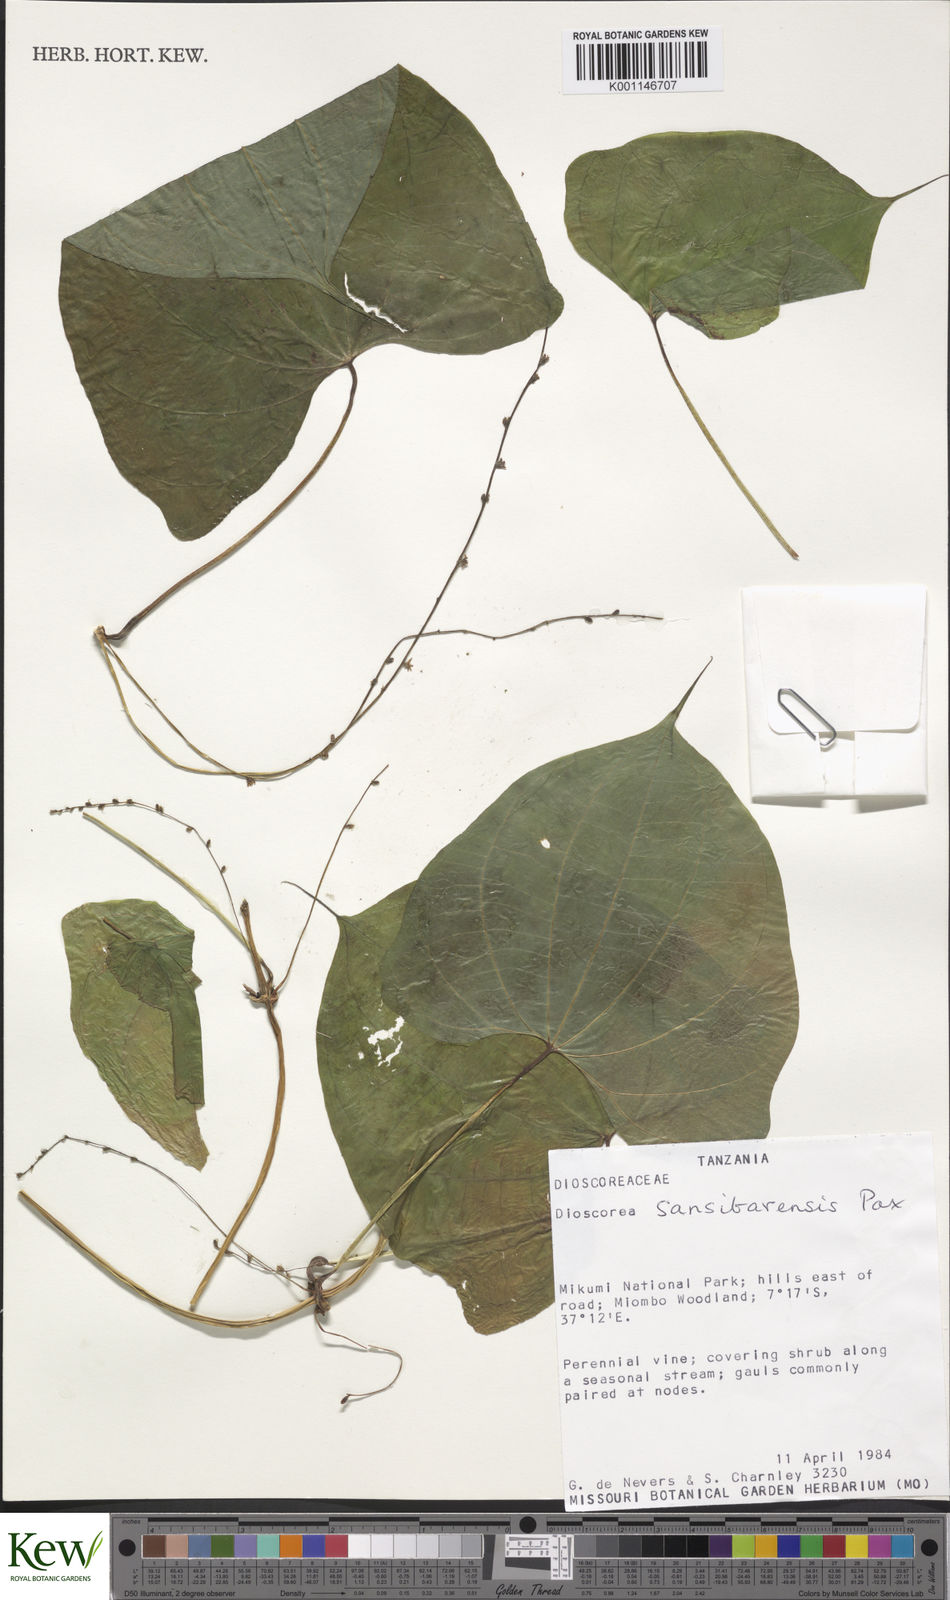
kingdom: Plantae
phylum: Tracheophyta
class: Liliopsida
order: Dioscoreales
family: Dioscoreaceae
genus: Dioscorea
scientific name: Dioscorea sansibarensis
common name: Zanzibar yam
